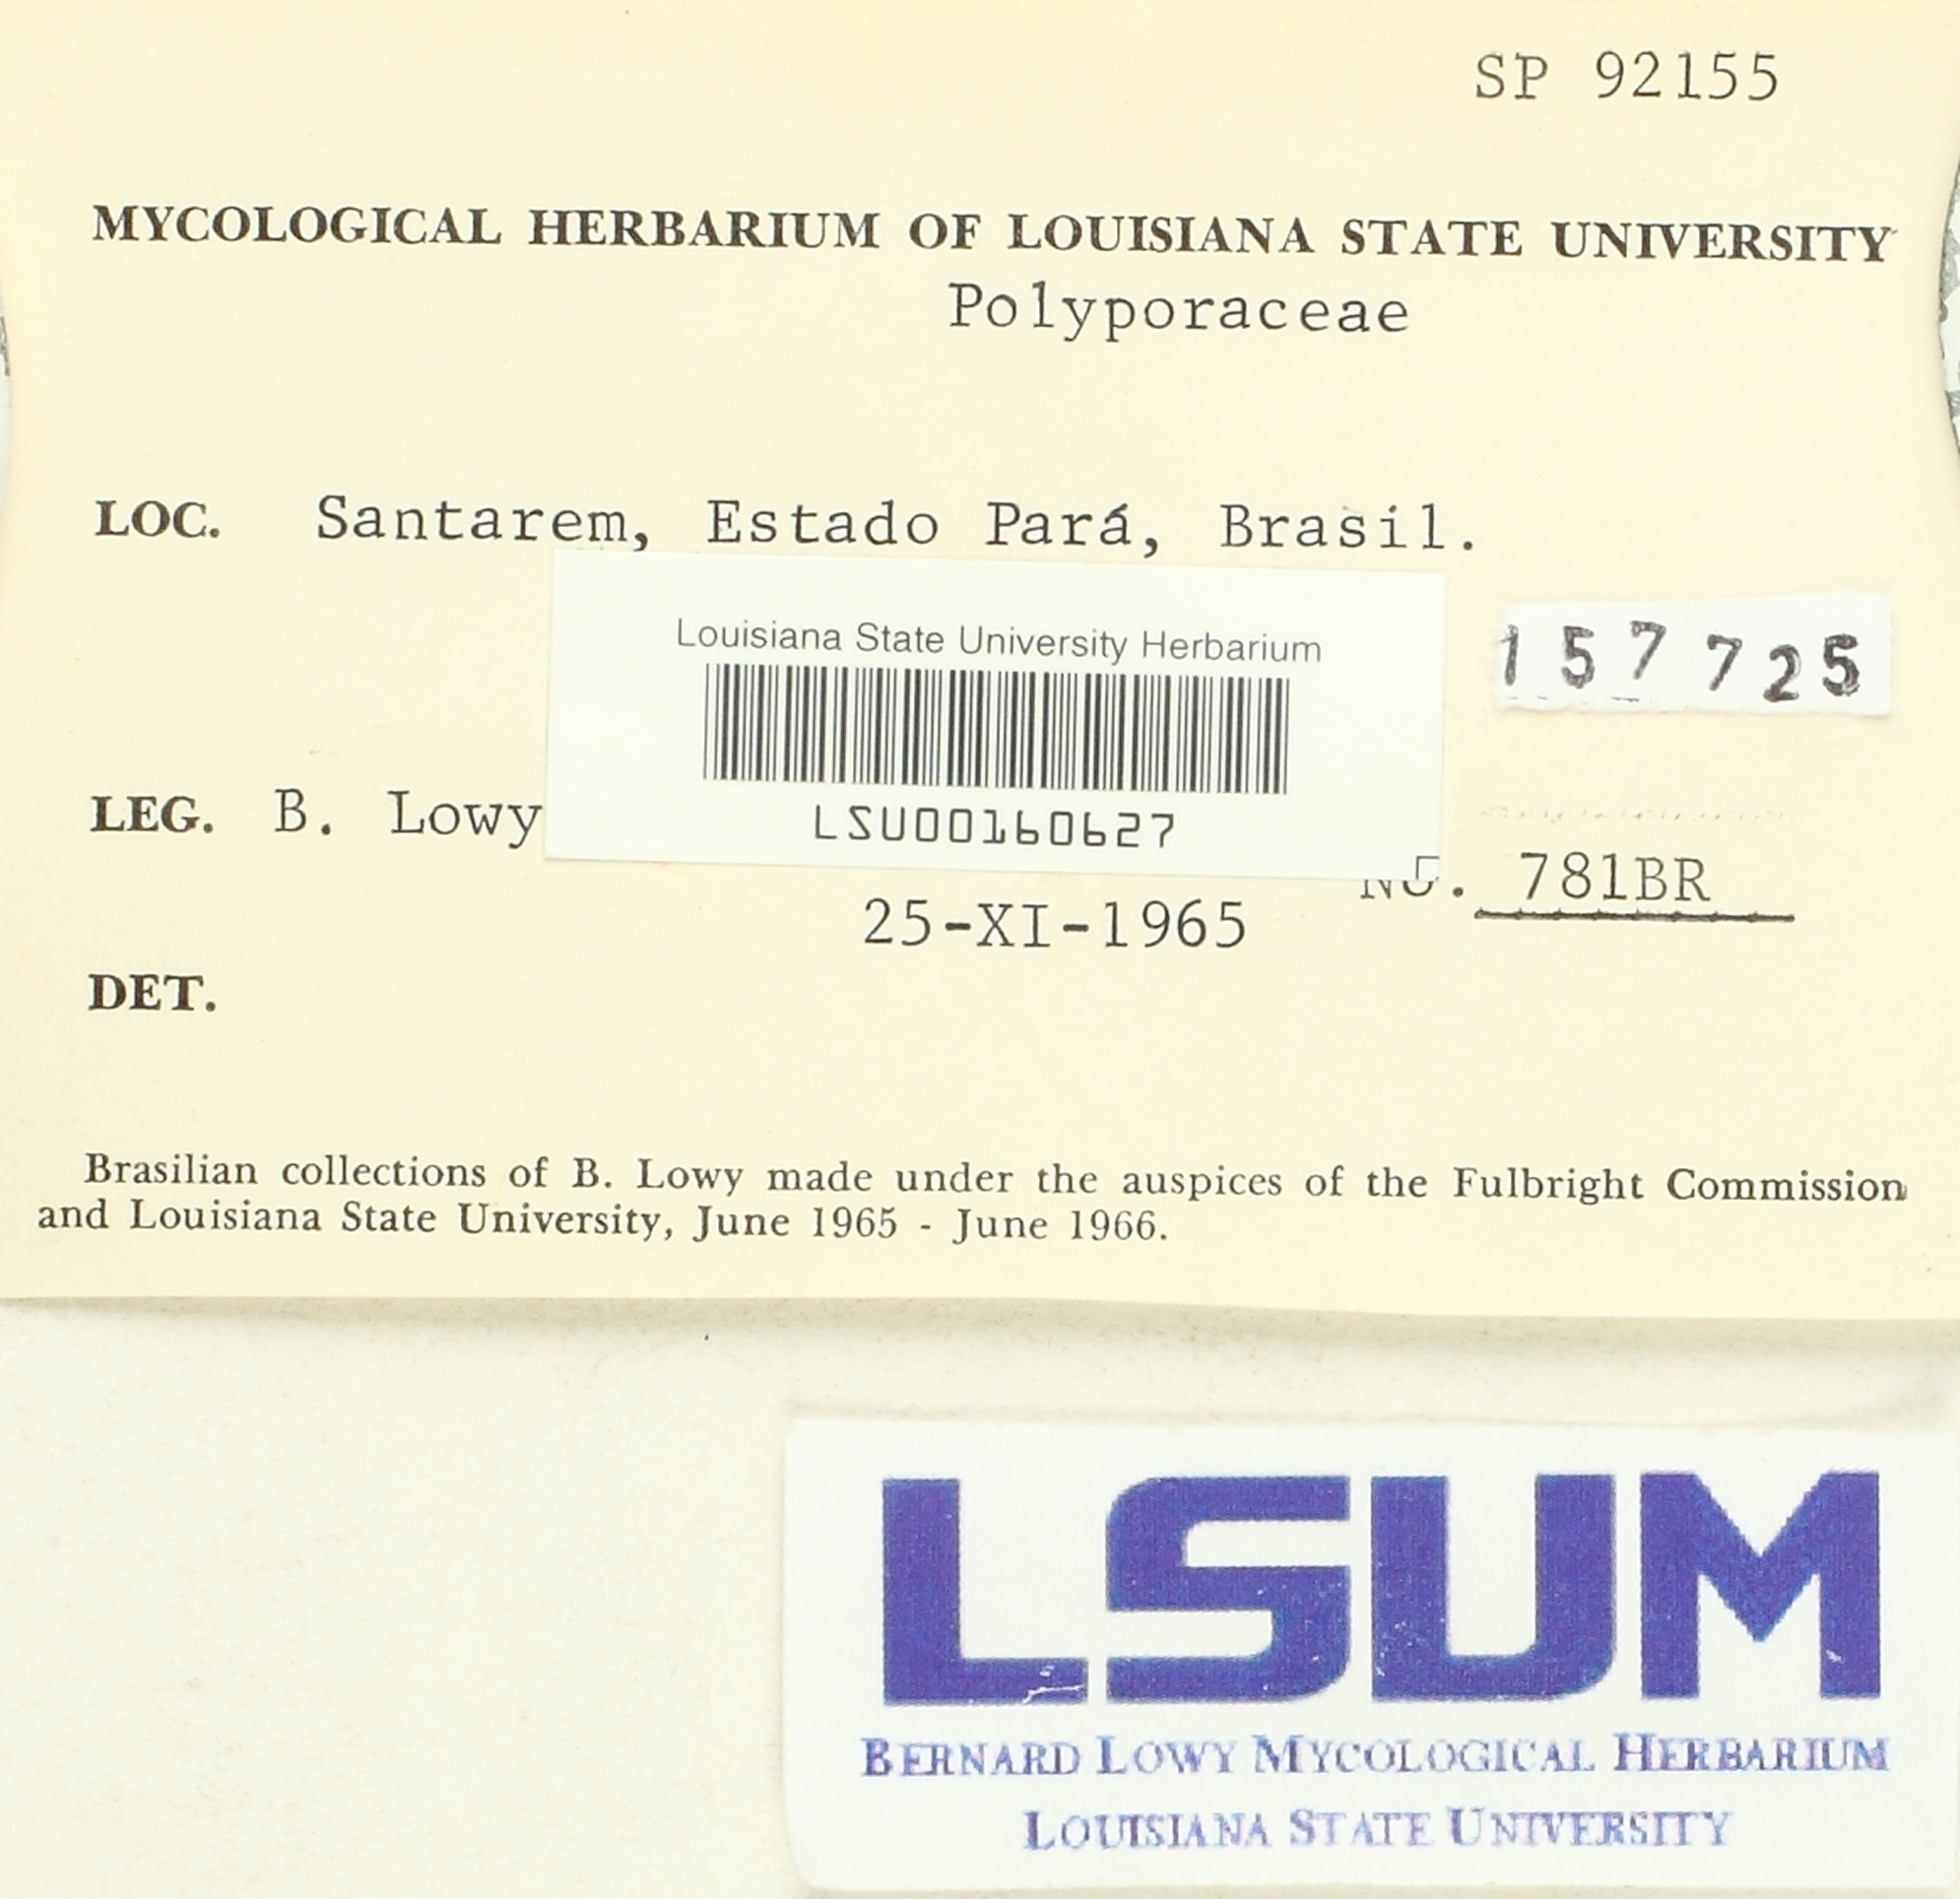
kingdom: Fungi
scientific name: Fungi
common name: Fungi
